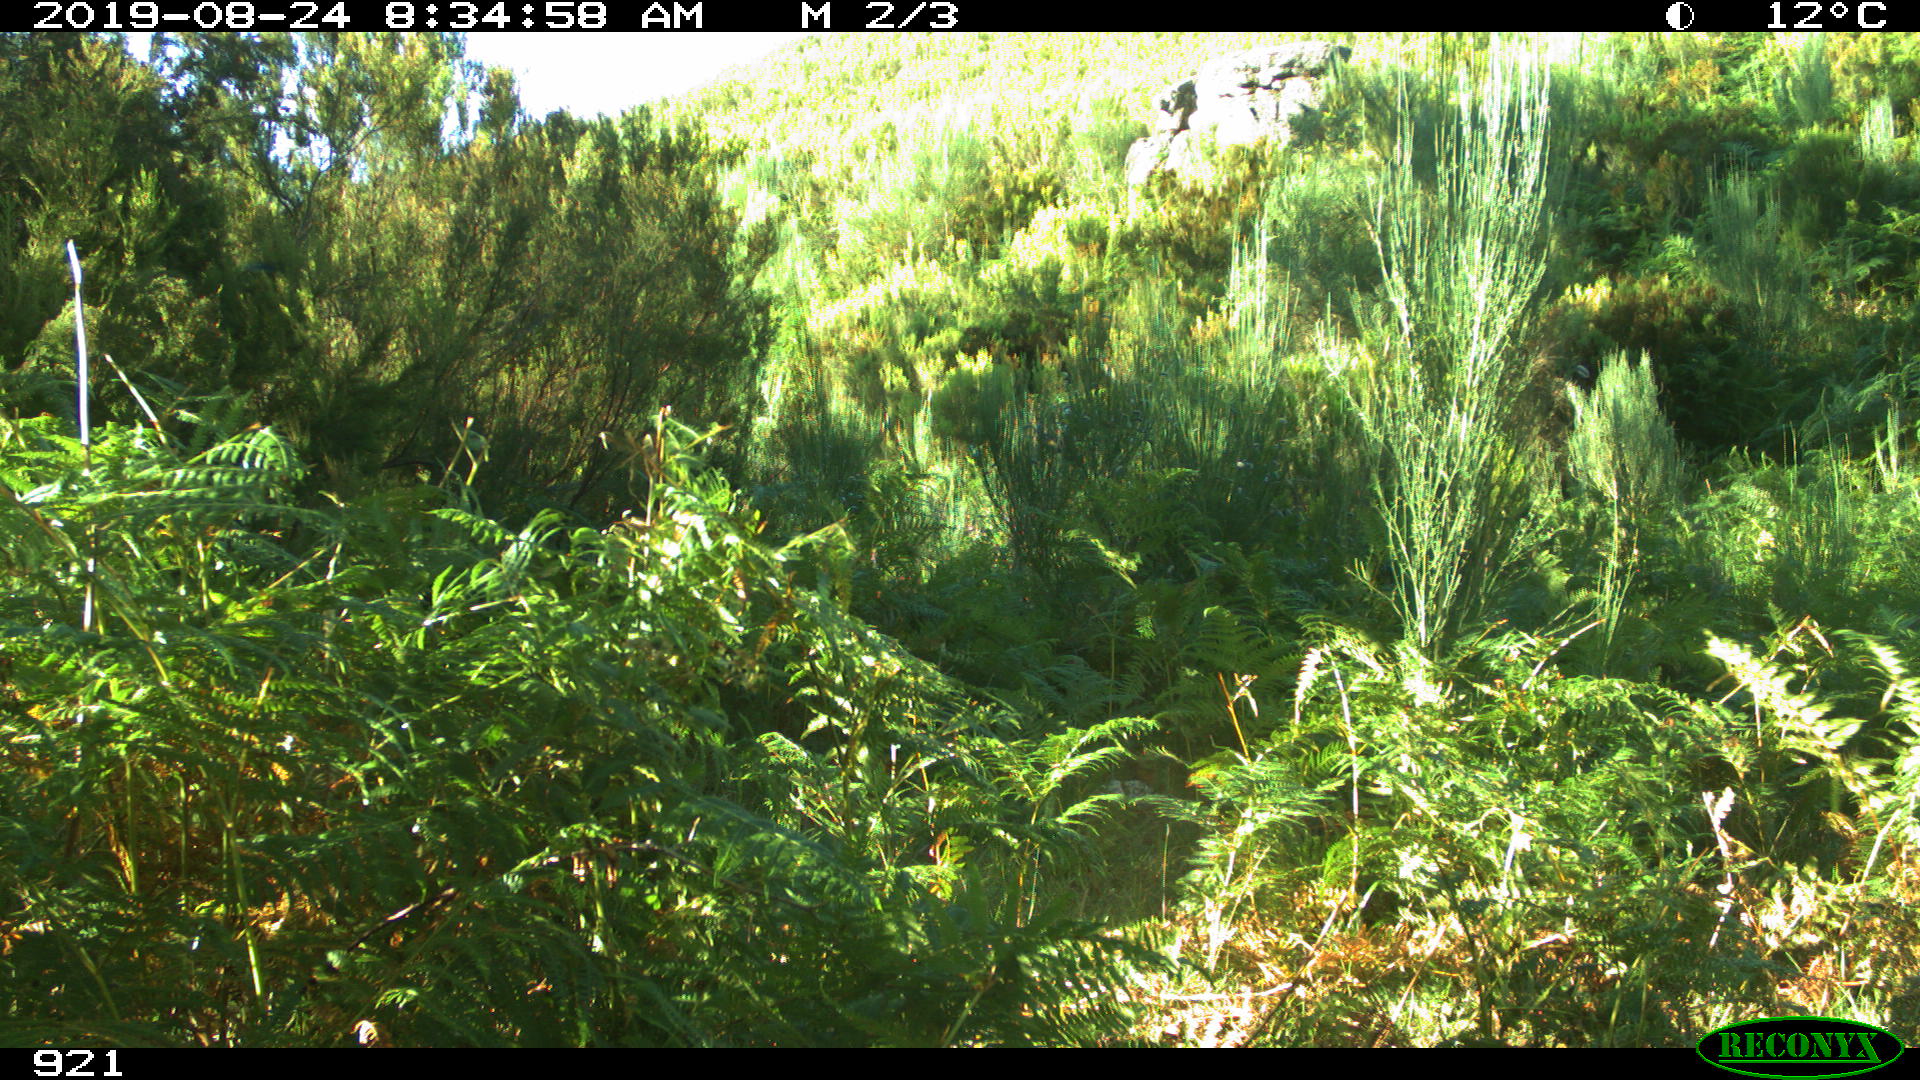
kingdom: Animalia
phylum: Chordata
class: Mammalia
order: Perissodactyla
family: Equidae
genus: Equus
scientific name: Equus caballus
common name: Horse
